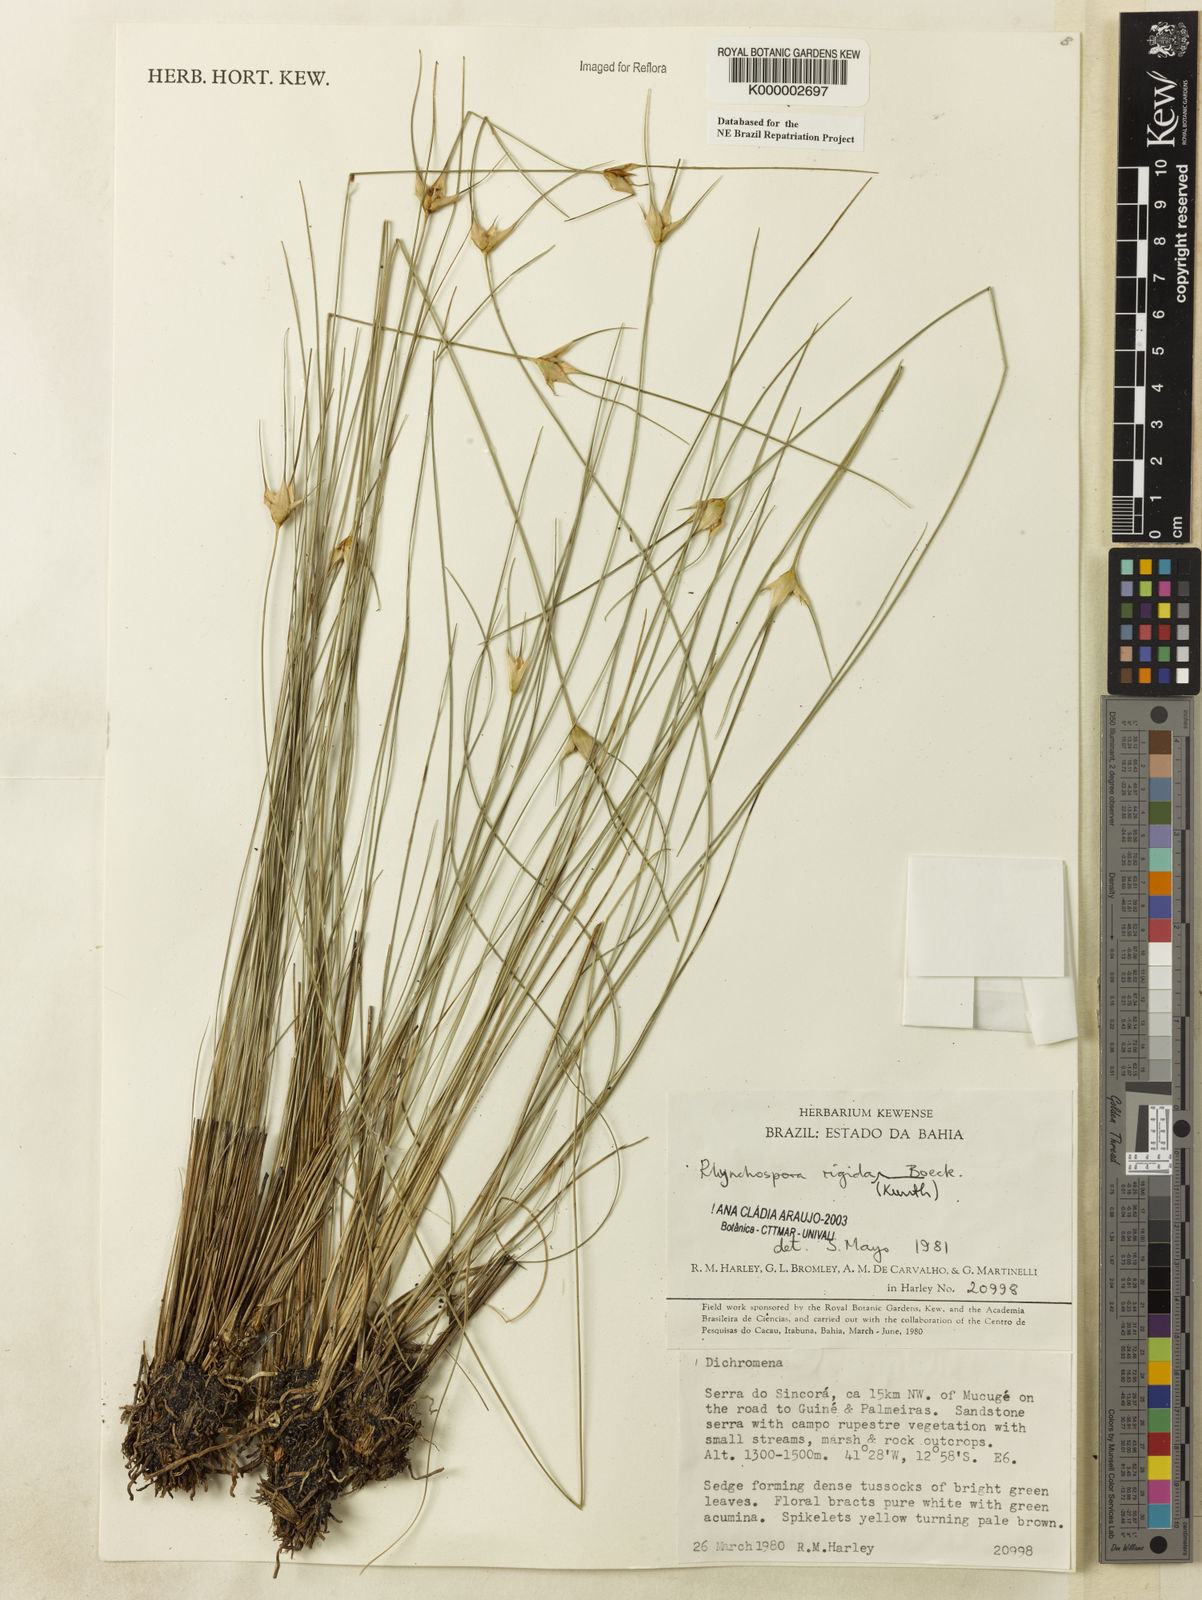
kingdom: Plantae
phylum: Tracheophyta
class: Liliopsida
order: Poales
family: Cyperaceae
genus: Rhynchospora
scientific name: Rhynchospora consanguinea
